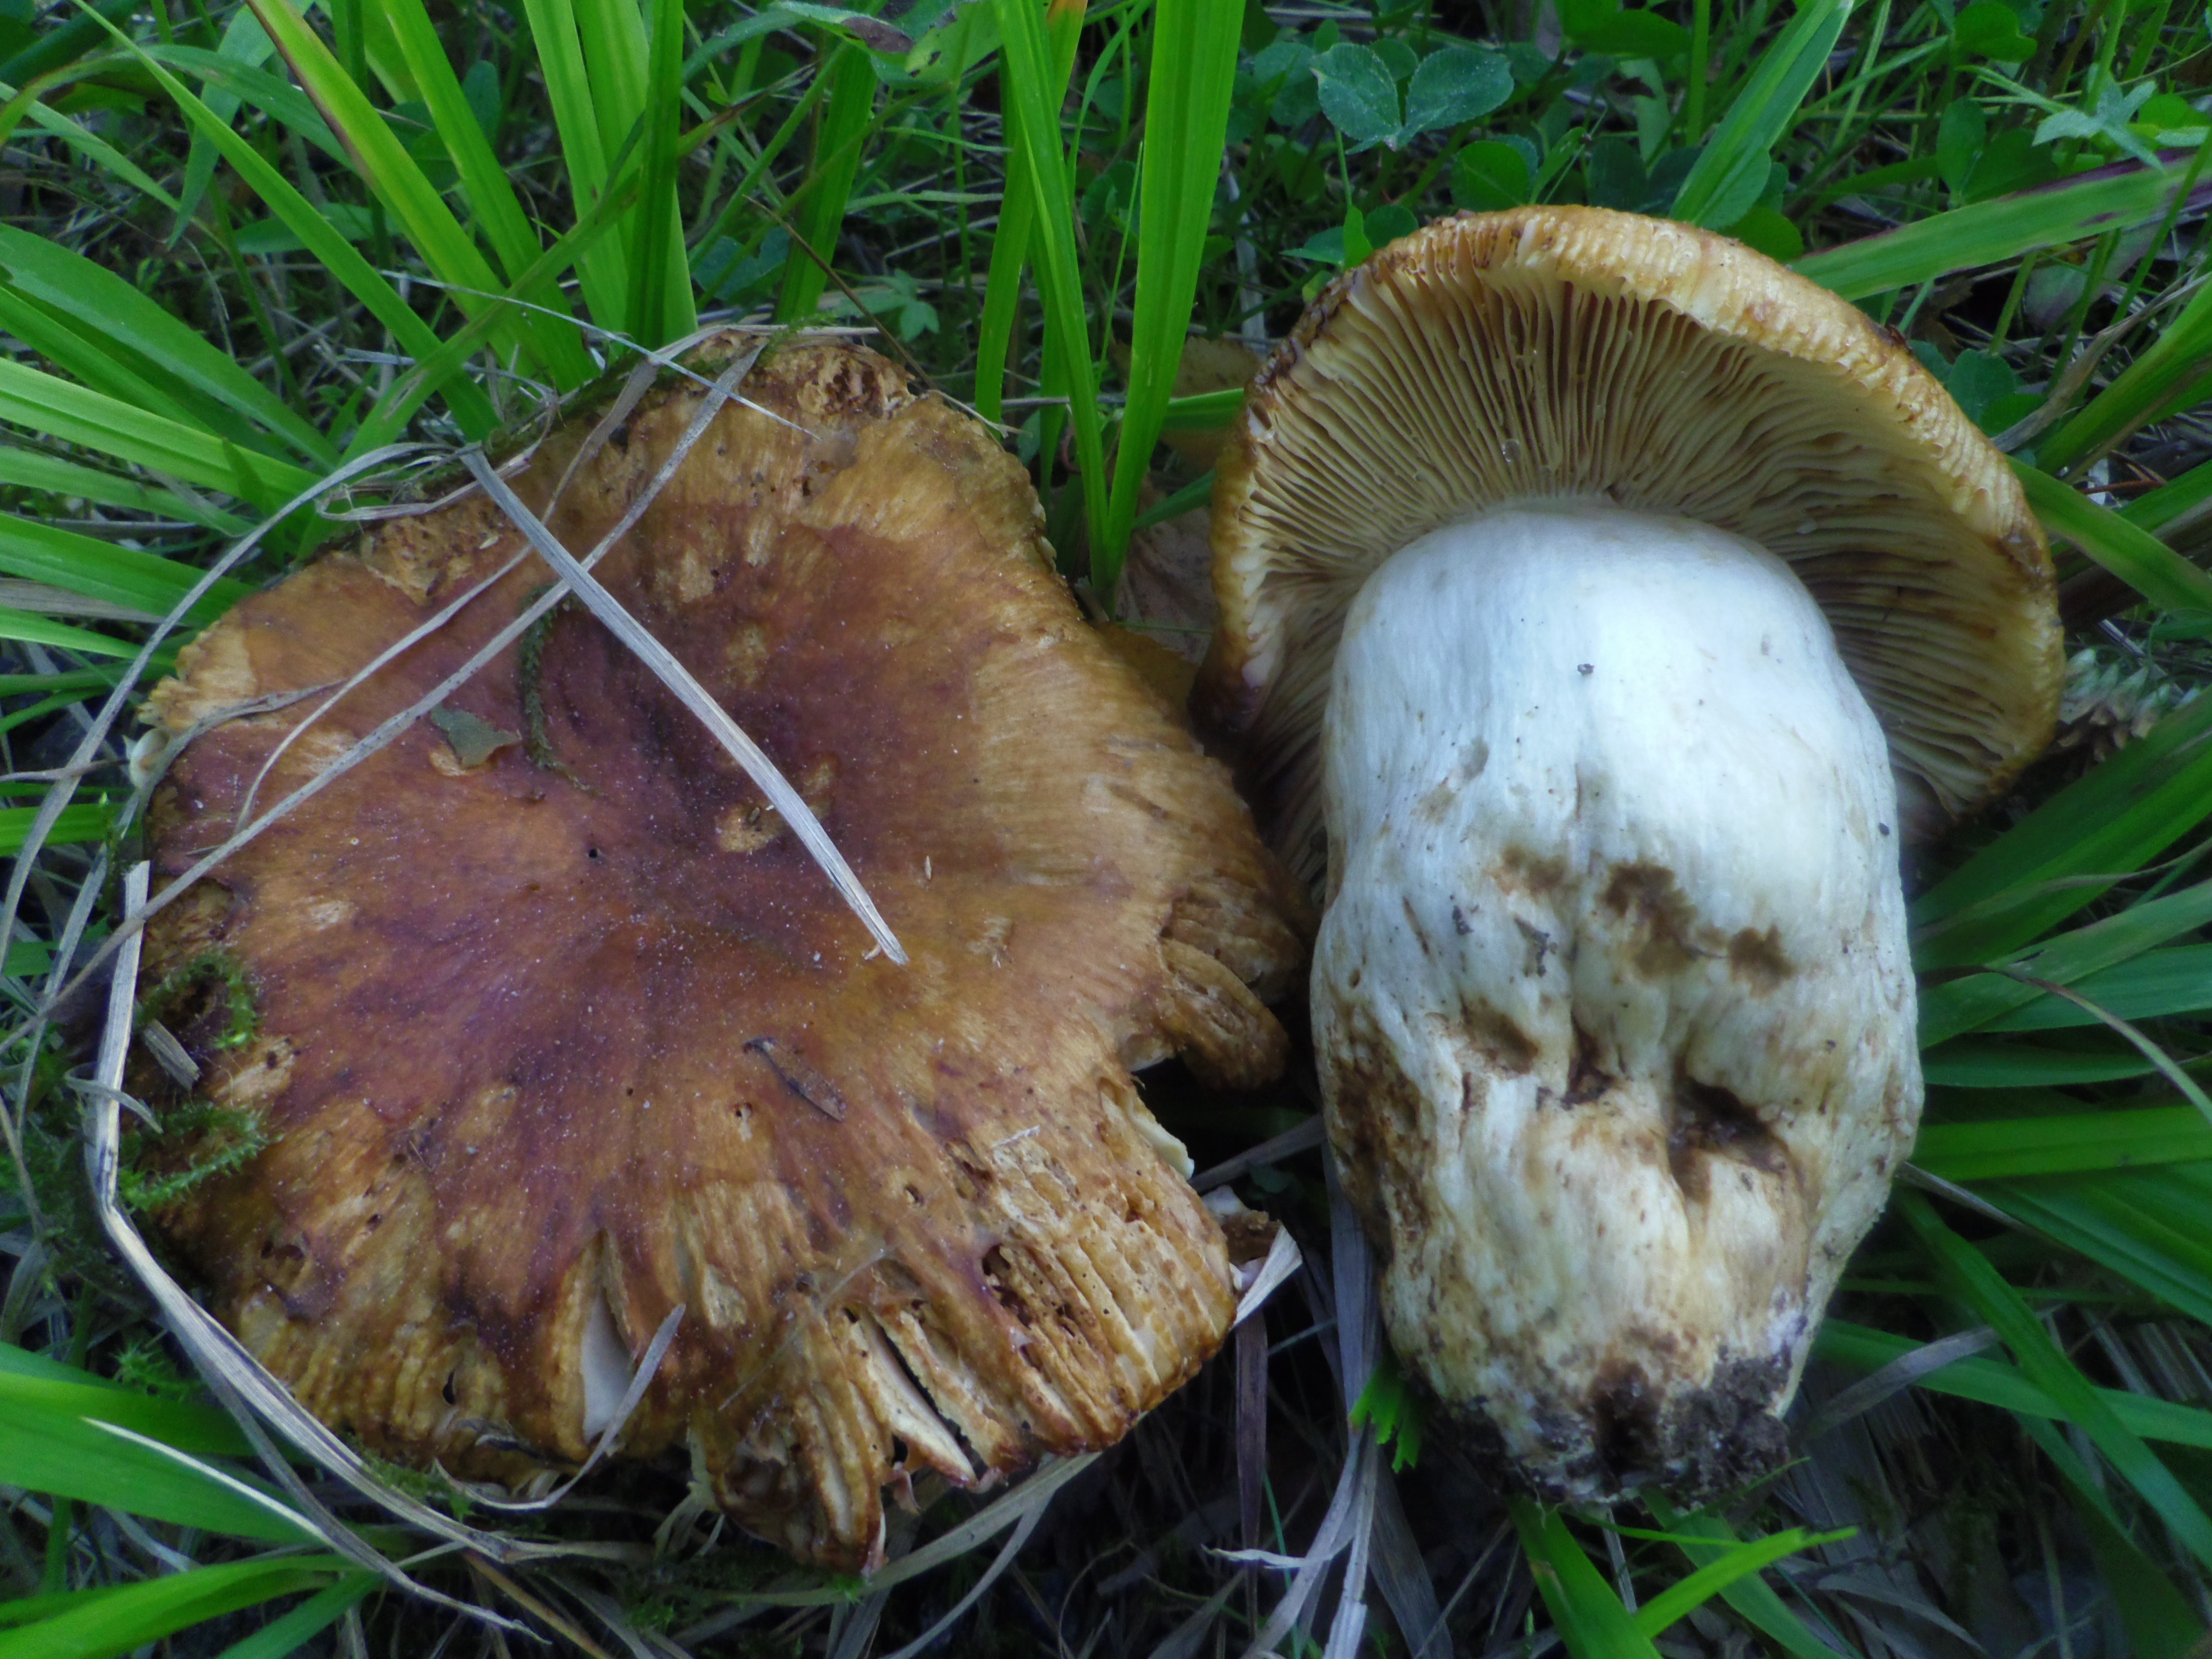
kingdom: Fungi
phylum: Basidiomycota
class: Agaricomycetes
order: Russulales
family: Russulaceae
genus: Russula
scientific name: Russula foetens
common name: Foetid russula
